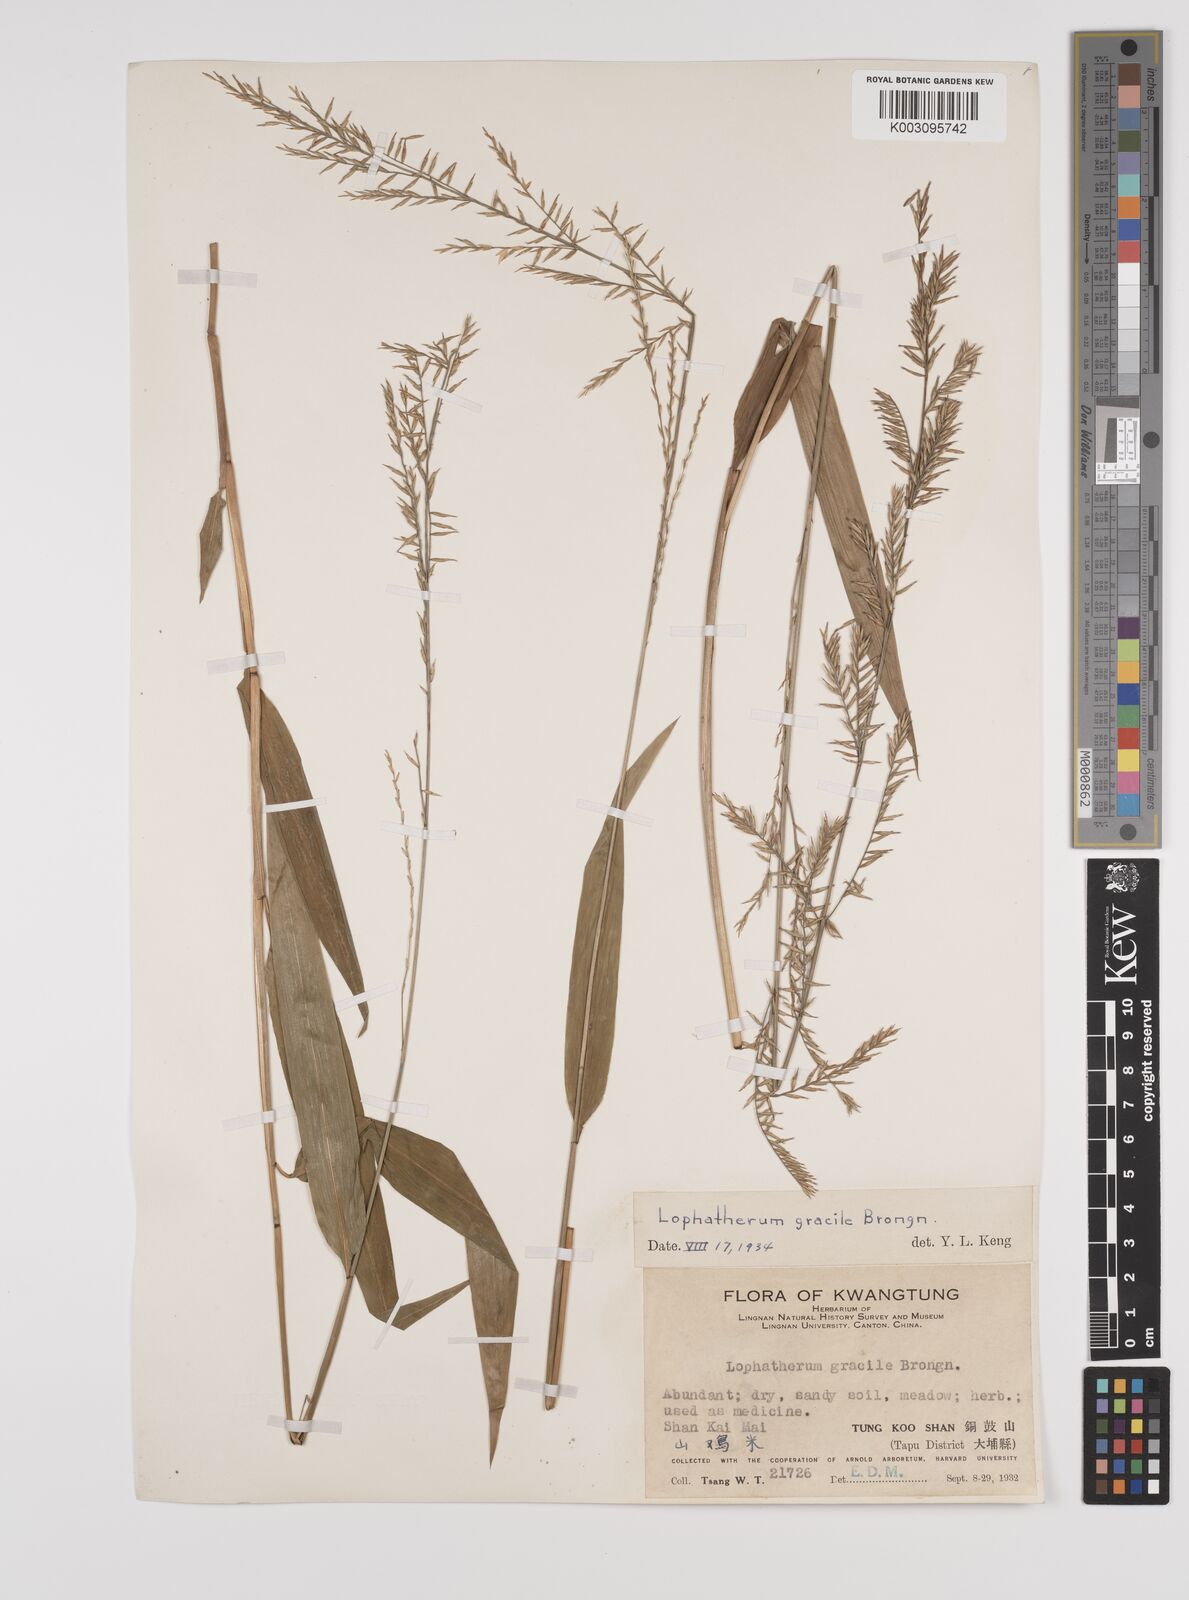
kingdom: Plantae
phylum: Tracheophyta
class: Liliopsida
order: Poales
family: Poaceae
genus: Lophatherum
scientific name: Lophatherum gracile
